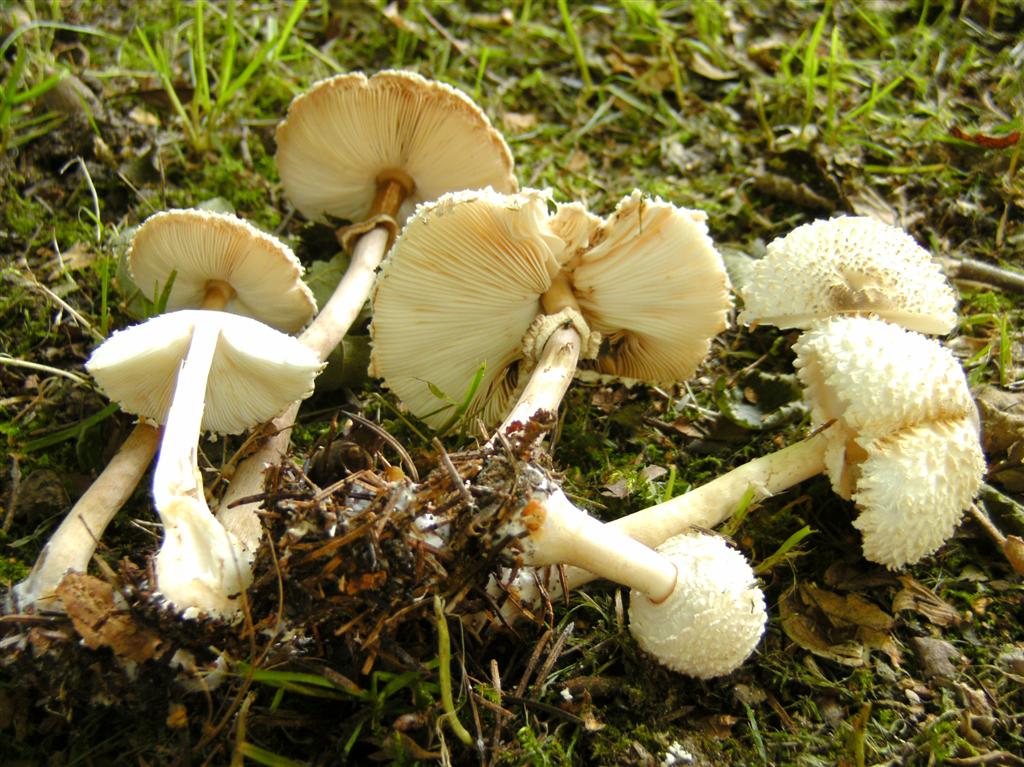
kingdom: Fungi
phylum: Basidiomycota
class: Agaricomycetes
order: Agaricales
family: Agaricaceae
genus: Leucoagaricus
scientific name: Leucoagaricus nympharum
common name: gran-silkehat
